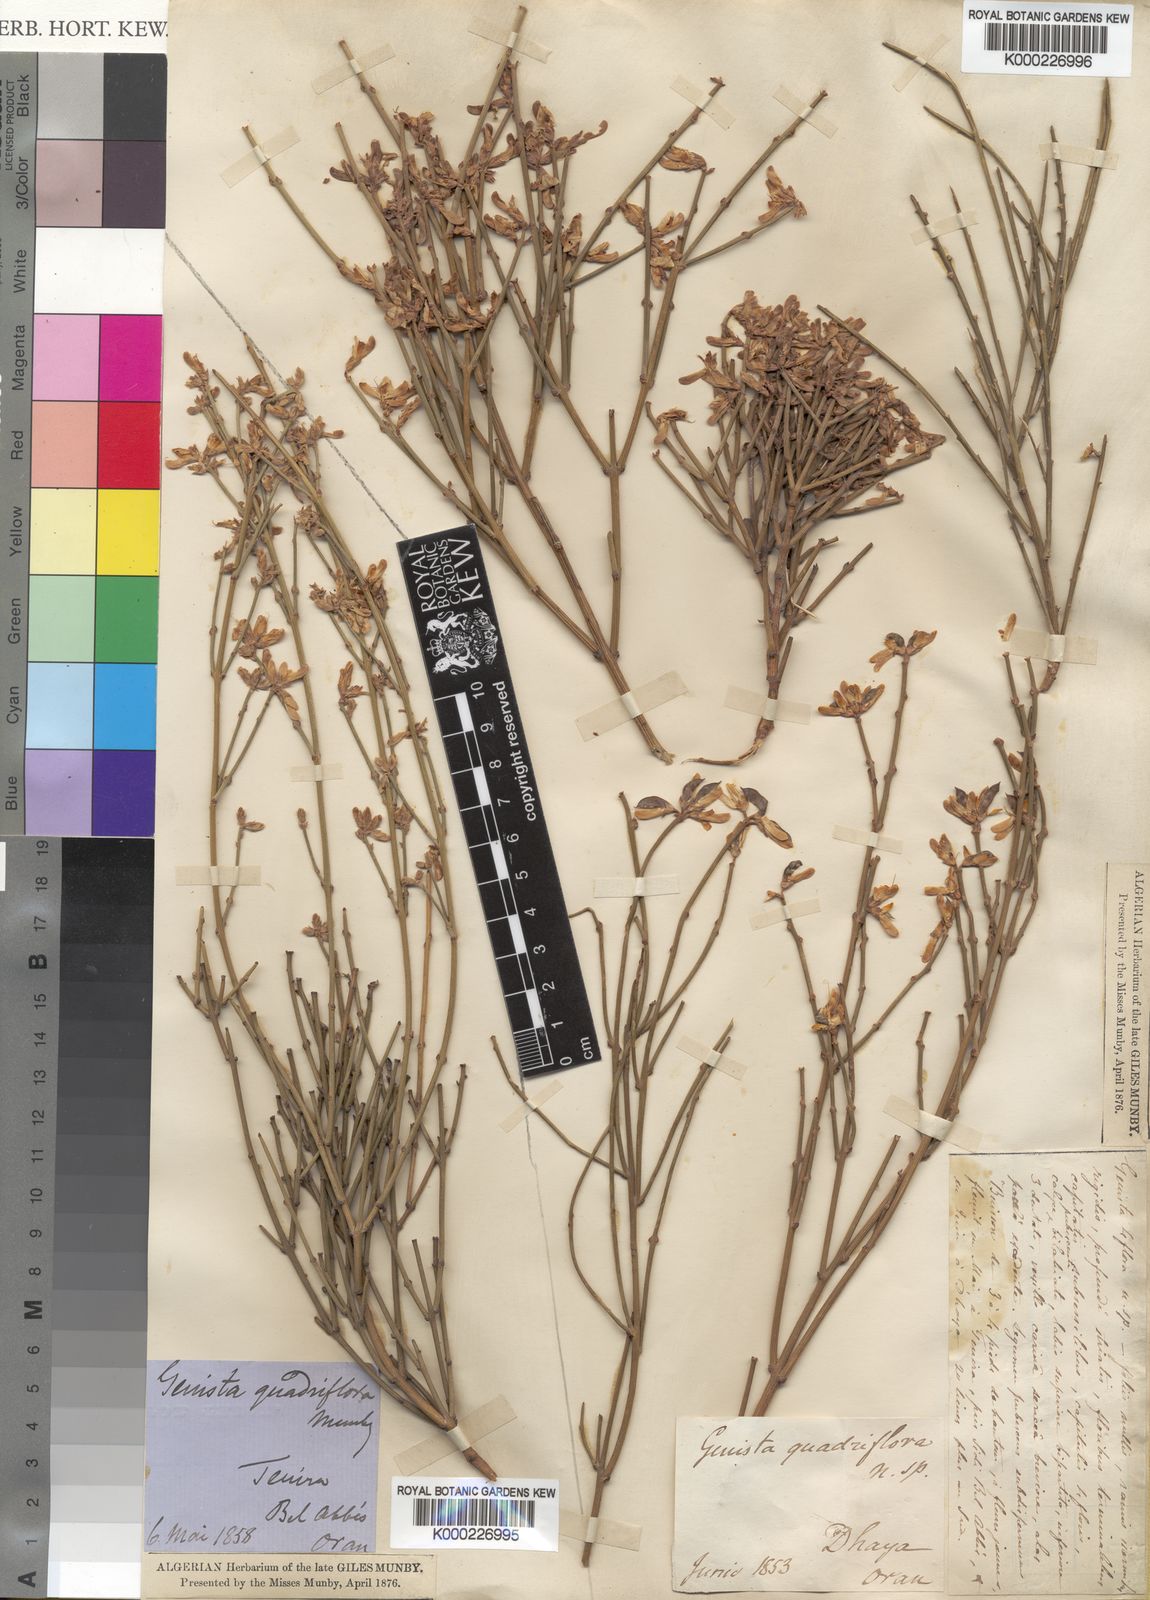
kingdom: Plantae
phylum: Tracheophyta
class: Magnoliopsida
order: Fabales
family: Fabaceae
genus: Genista
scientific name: Genista quadriflora
